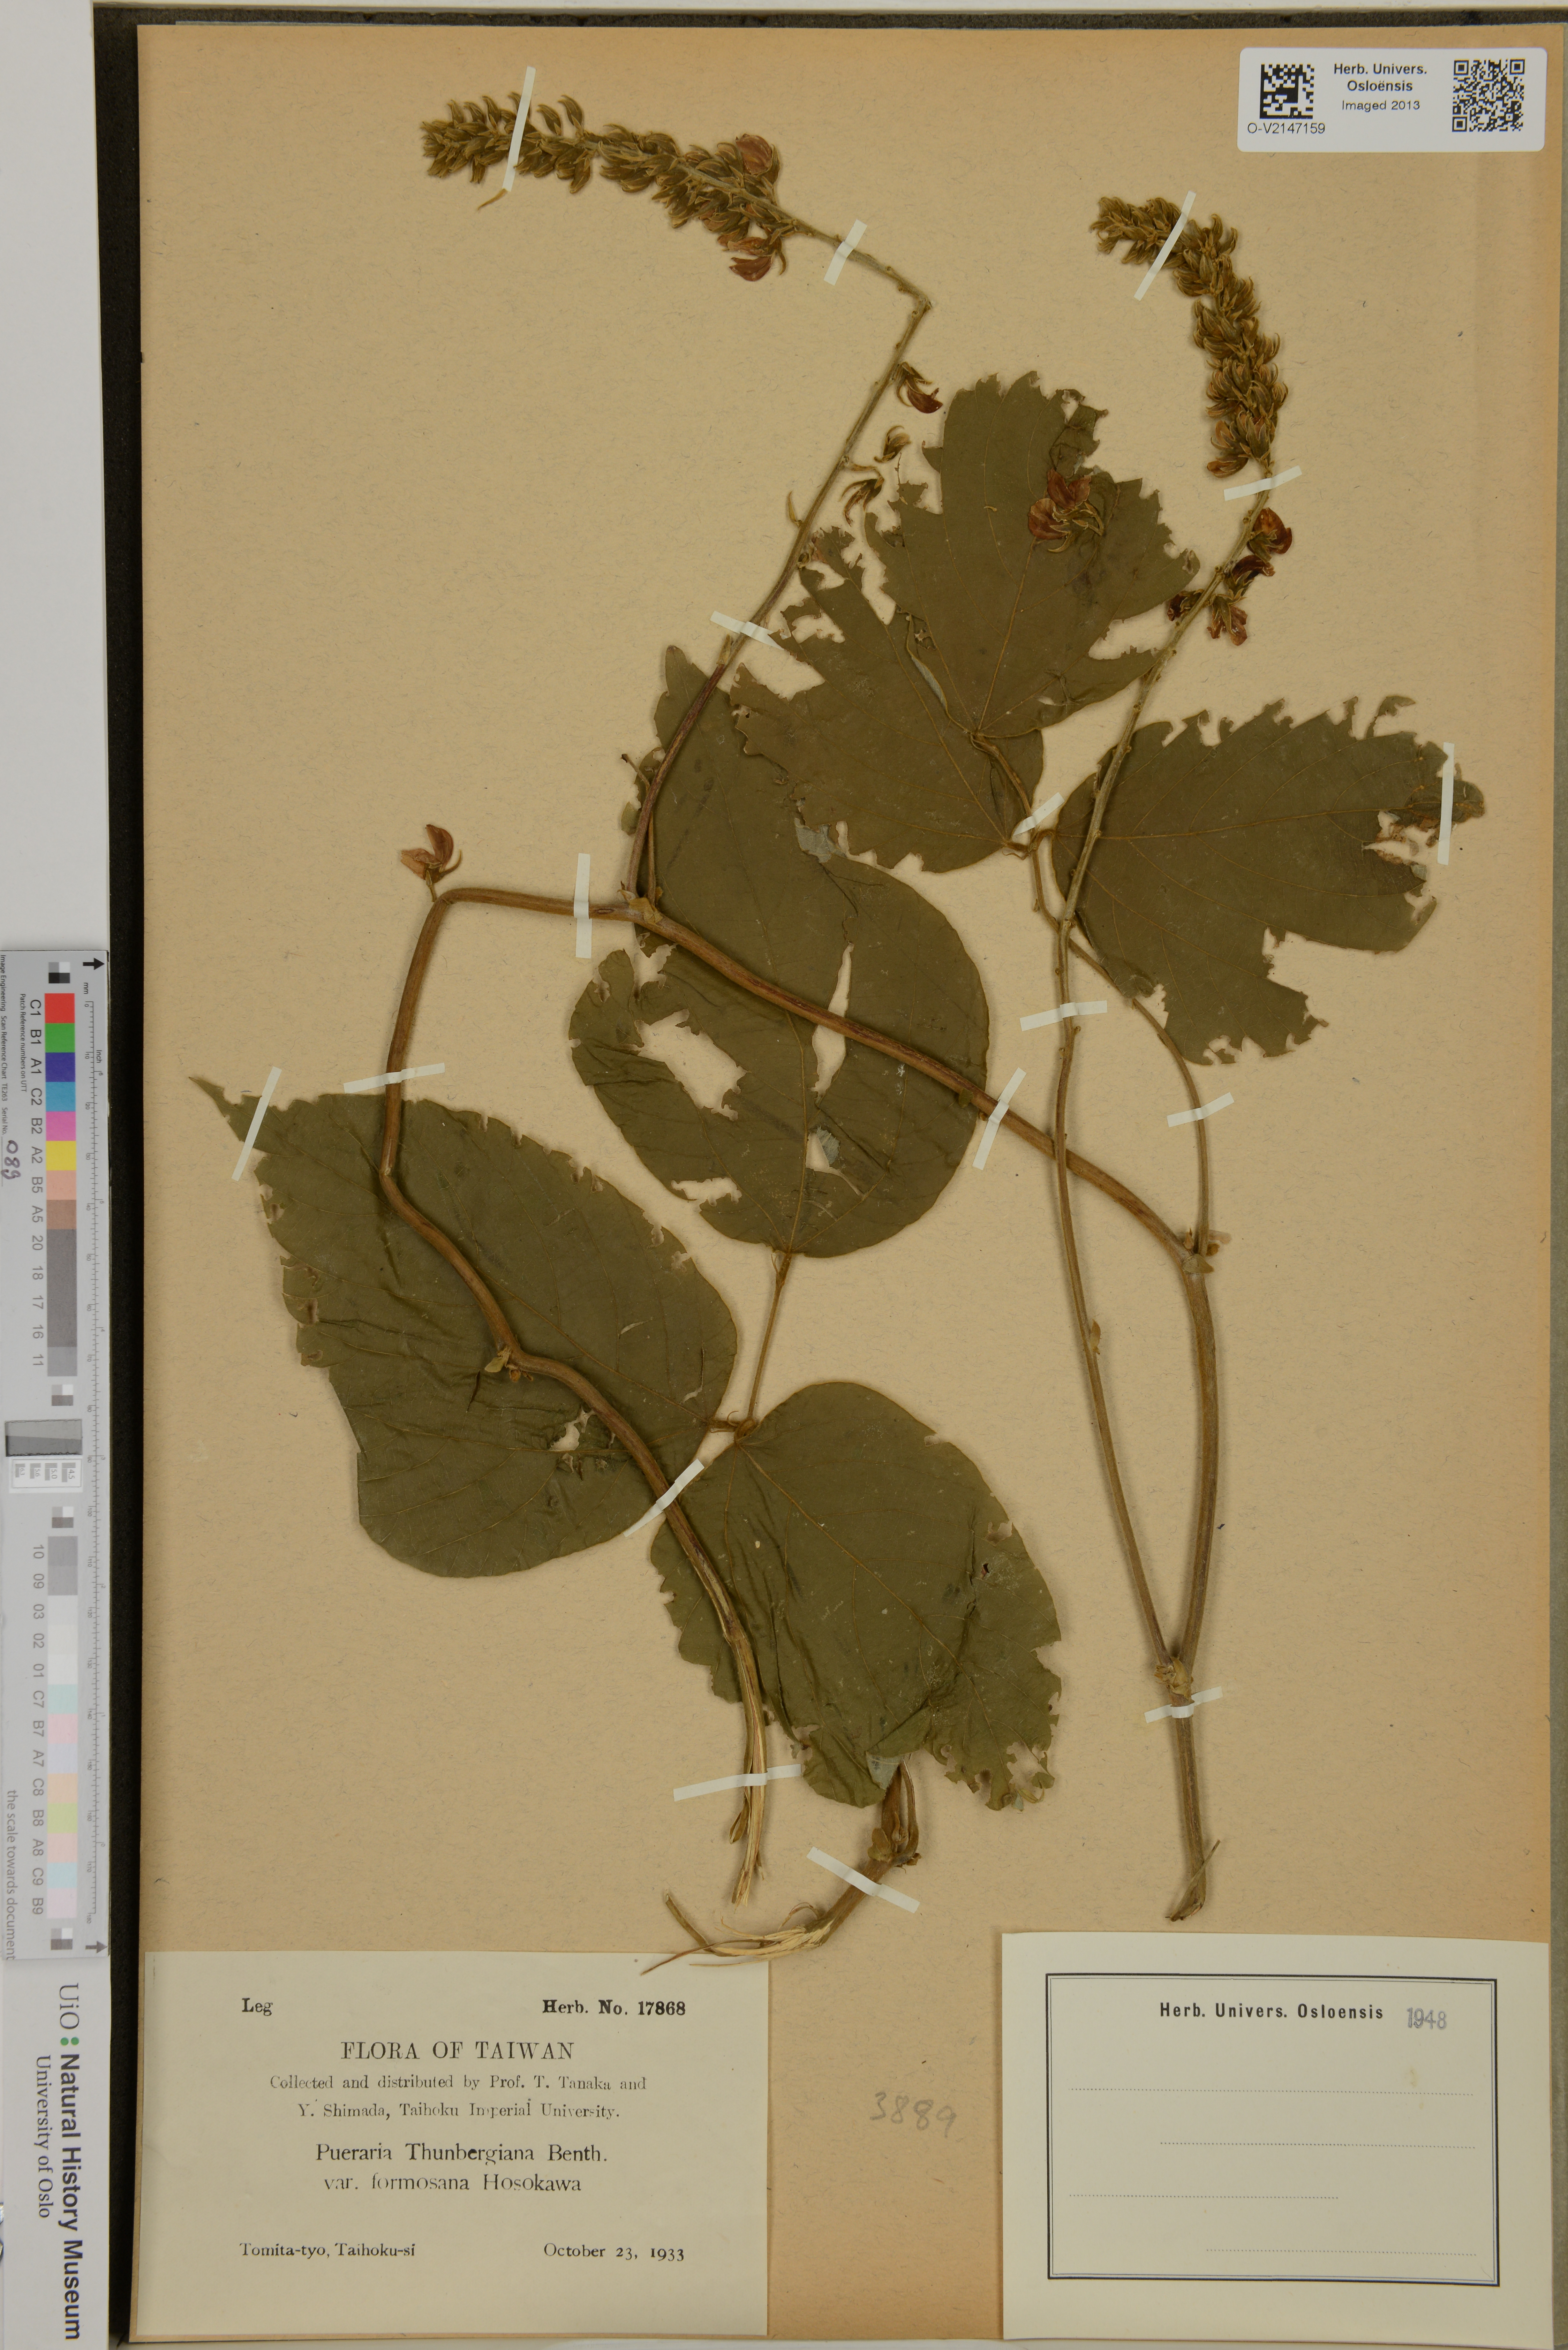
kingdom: Plantae
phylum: Tracheophyta
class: Magnoliopsida
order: Fabales
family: Fabaceae
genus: Pueraria
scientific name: Pueraria montana
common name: Kudzu
